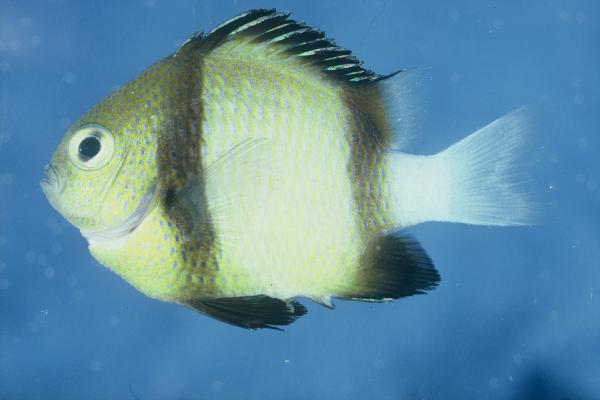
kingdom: Animalia
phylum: Chordata
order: Perciformes
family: Pomacentridae
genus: Dascyllus
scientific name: Dascyllus carneus
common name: Indian dascyllus
